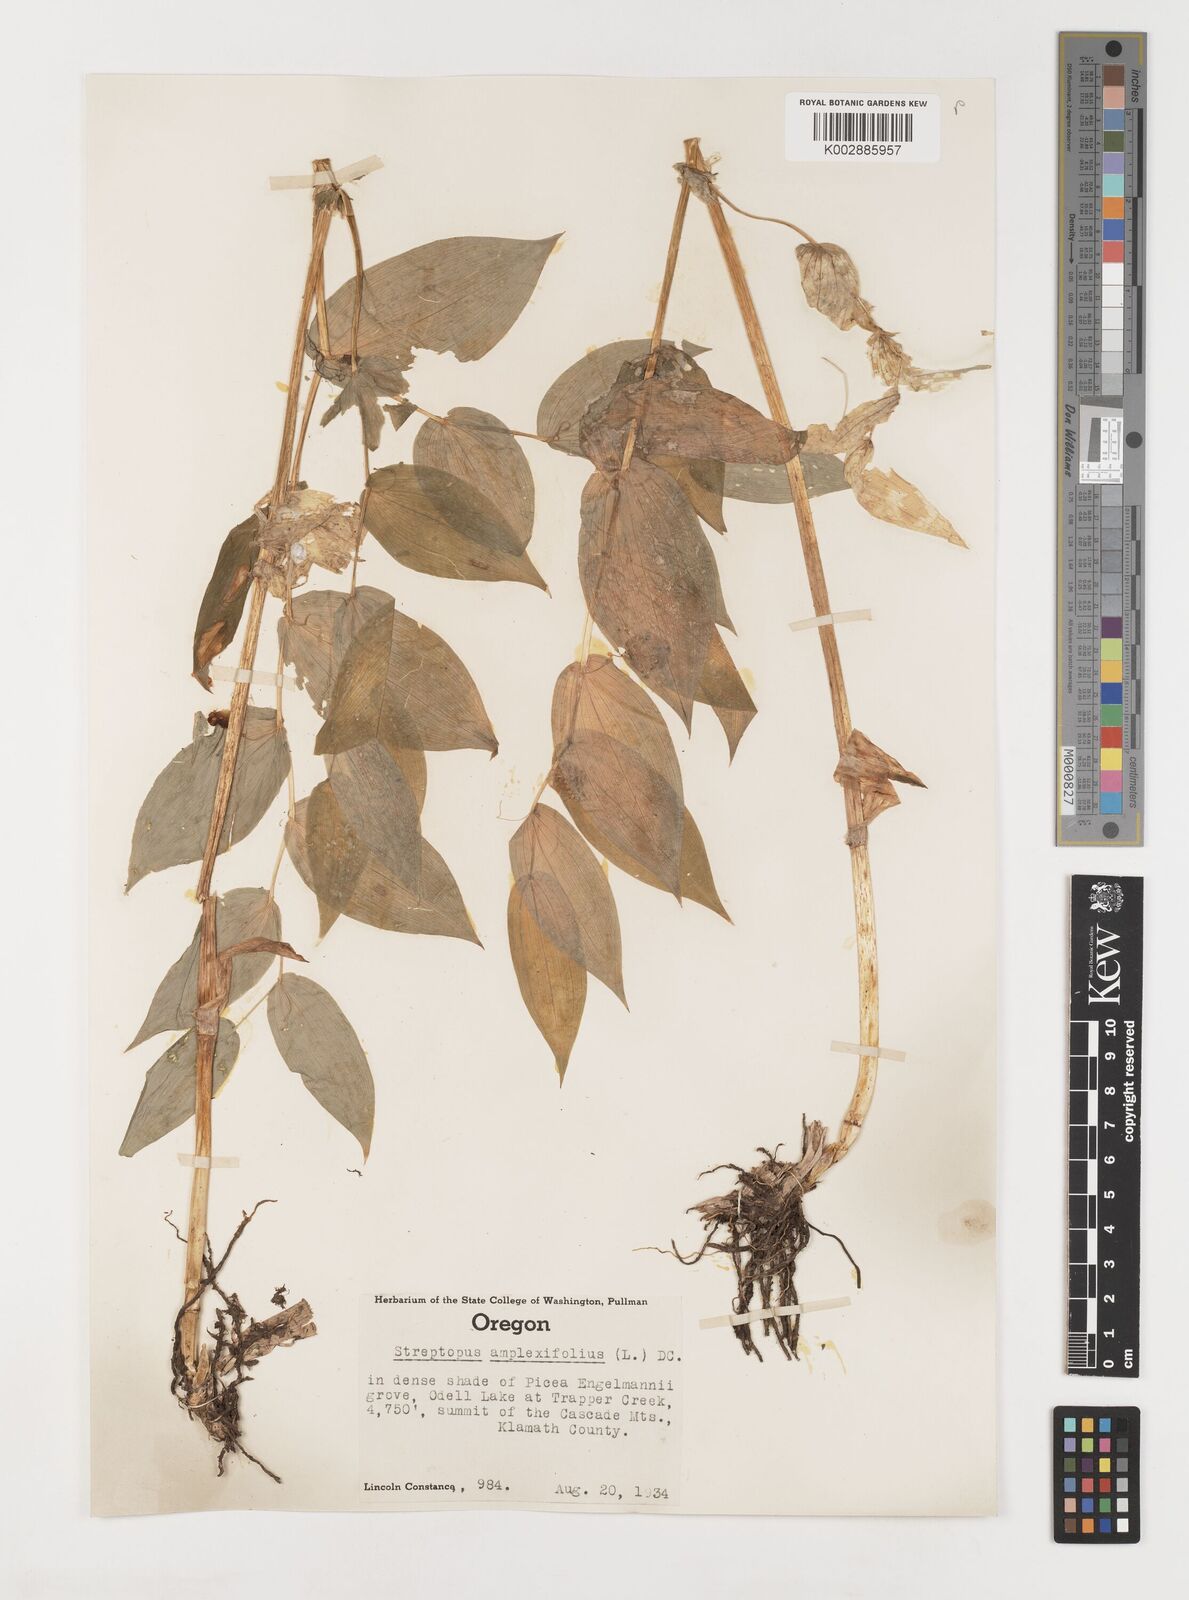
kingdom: Plantae
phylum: Tracheophyta
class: Liliopsida
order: Liliales
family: Liliaceae
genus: Streptopus
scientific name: Streptopus amplexifolius
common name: Clasp twisted stalk
